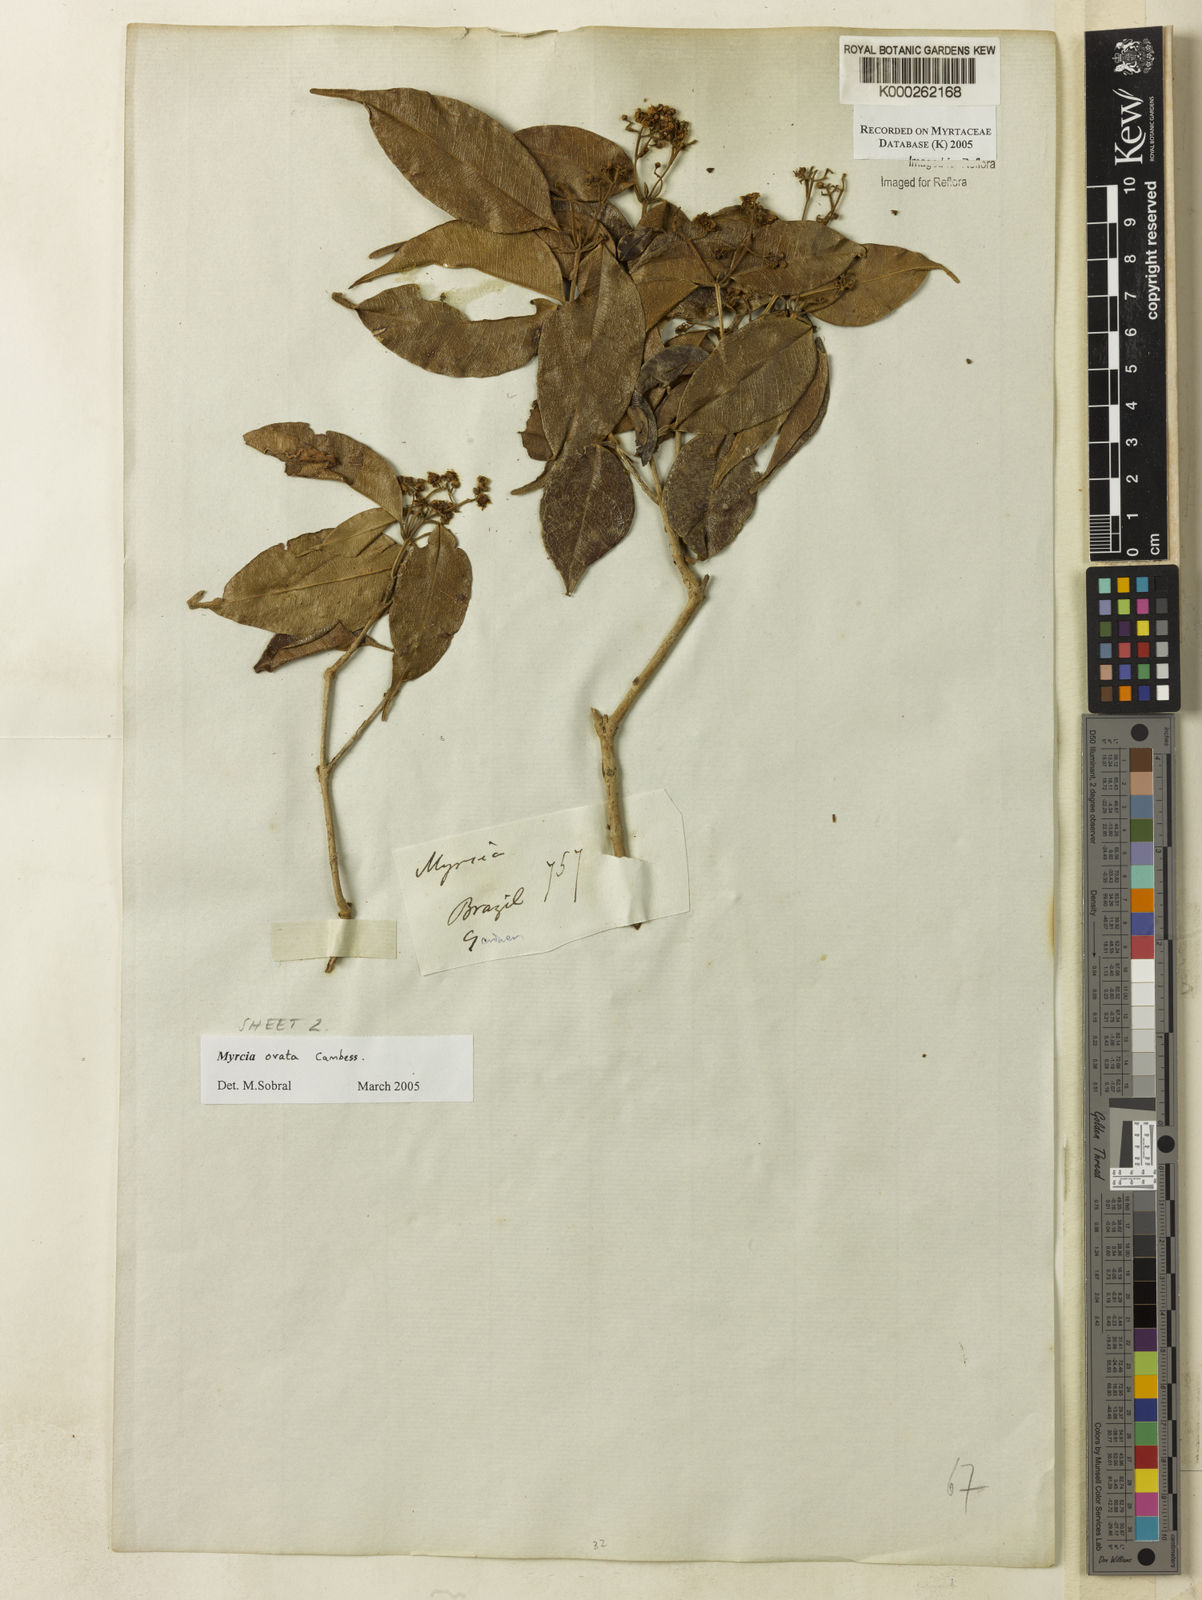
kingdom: Plantae
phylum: Tracheophyta
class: Magnoliopsida
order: Myrtales
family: Myrtaceae
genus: Myrcia
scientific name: Myrcia ovata
